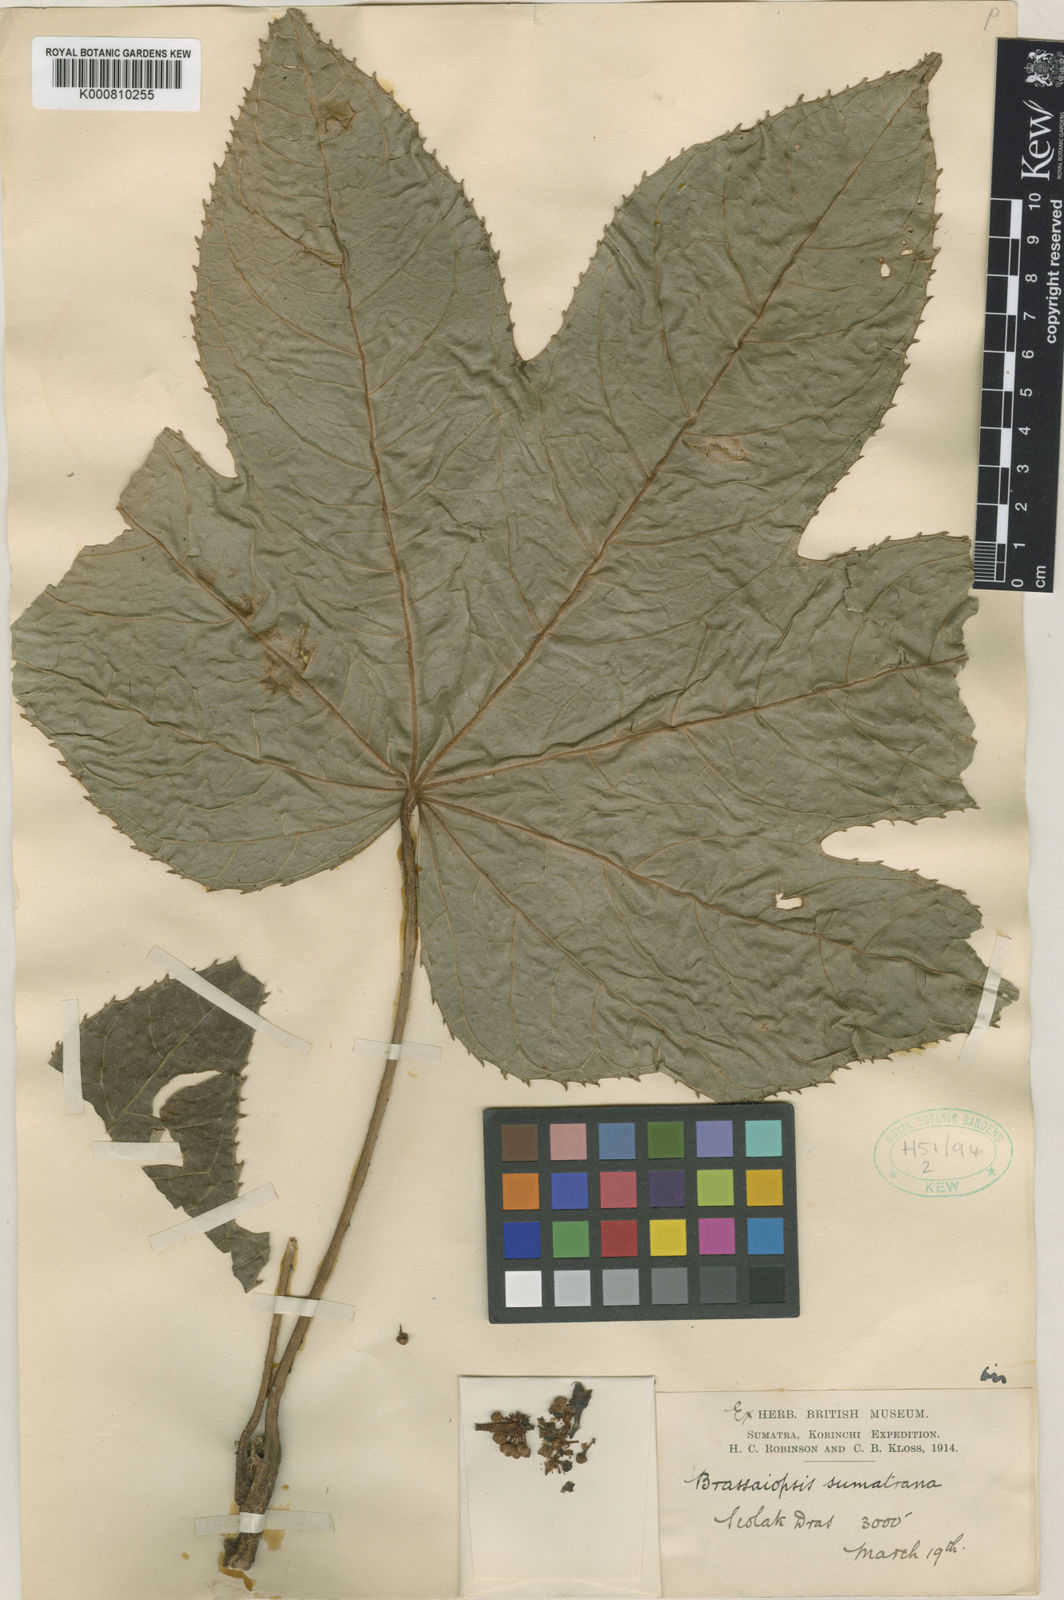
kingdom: Plantae
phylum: Tracheophyta
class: Magnoliopsida
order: Apiales
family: Araliaceae
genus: Brassaiopsis
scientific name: Brassaiopsis sumatrana
